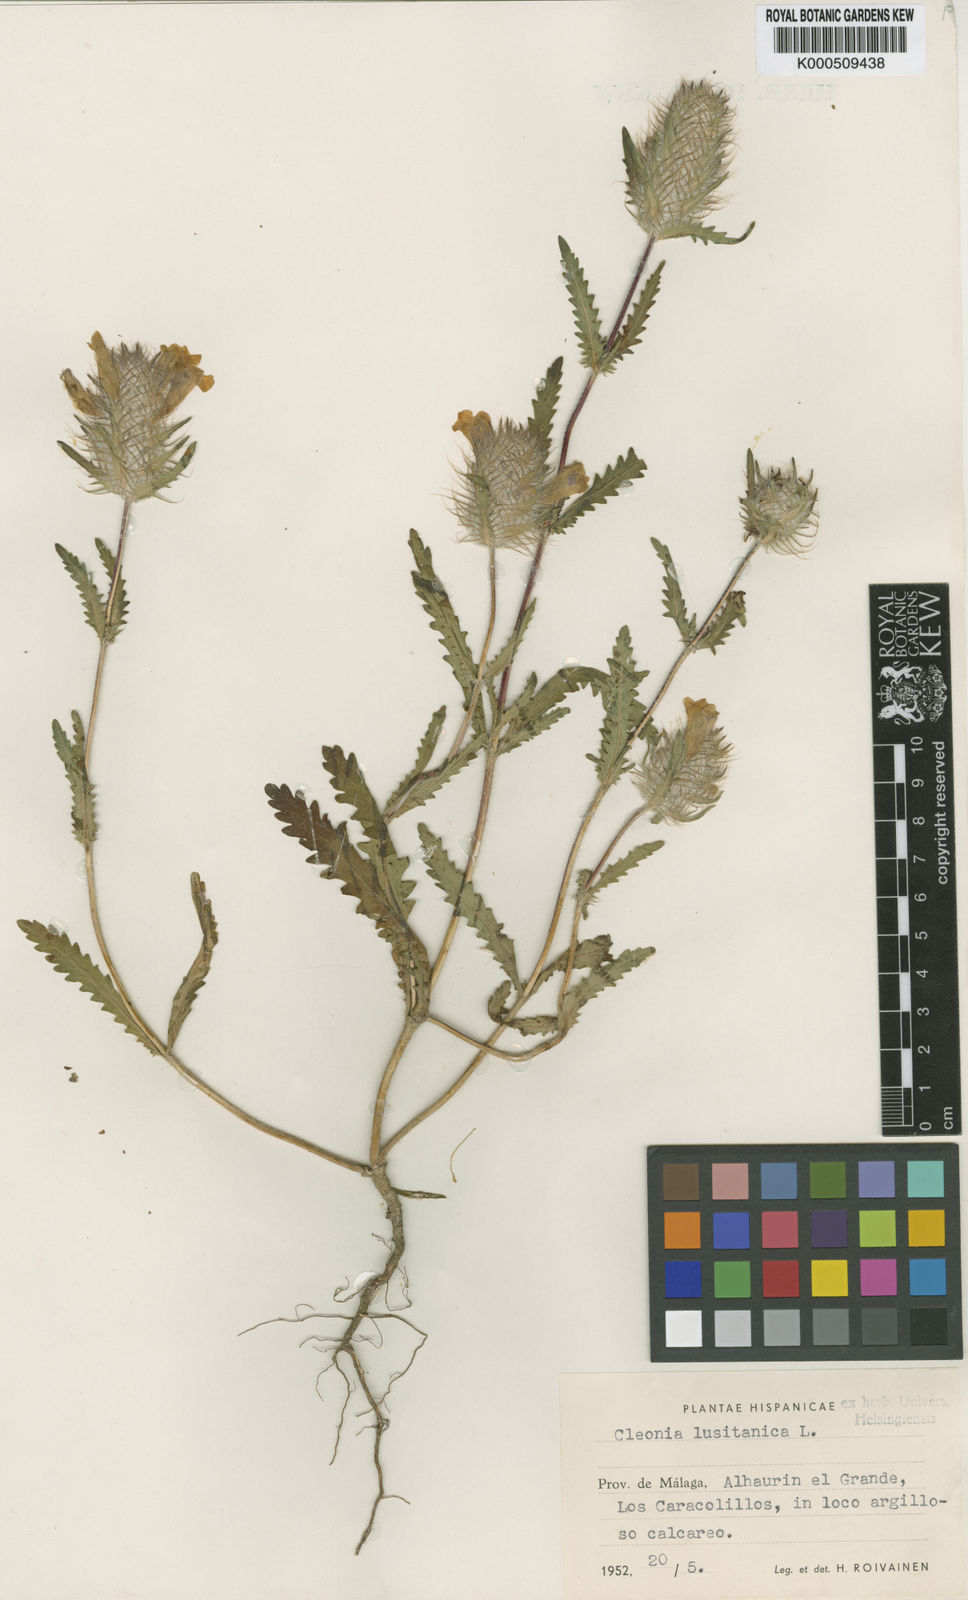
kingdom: Plantae
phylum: Tracheophyta
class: Magnoliopsida
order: Lamiales
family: Lamiaceae
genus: Cleonia
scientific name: Cleonia lusitanica
